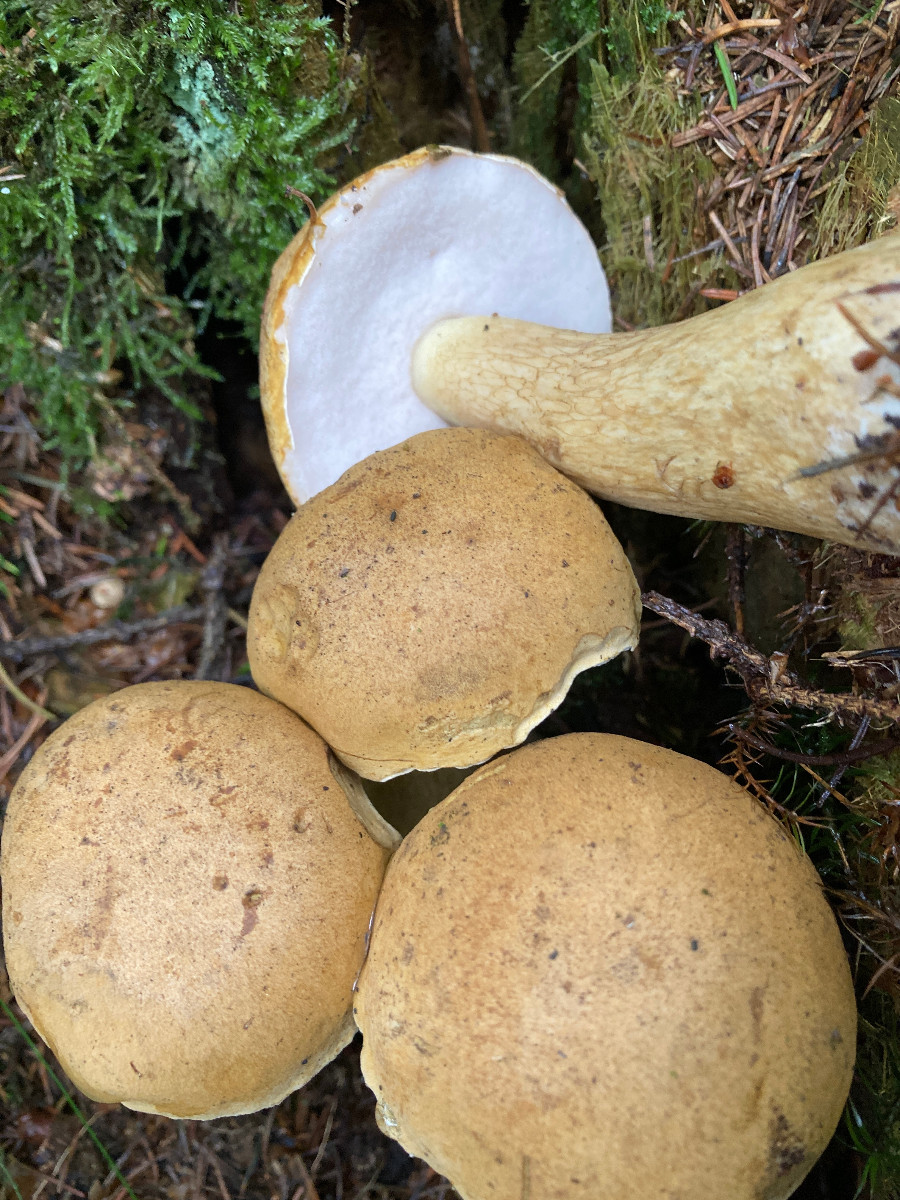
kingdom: Fungi
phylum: Basidiomycota
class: Agaricomycetes
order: Boletales
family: Boletaceae
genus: Tylopilus
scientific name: Tylopilus felleus
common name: galderørhat
